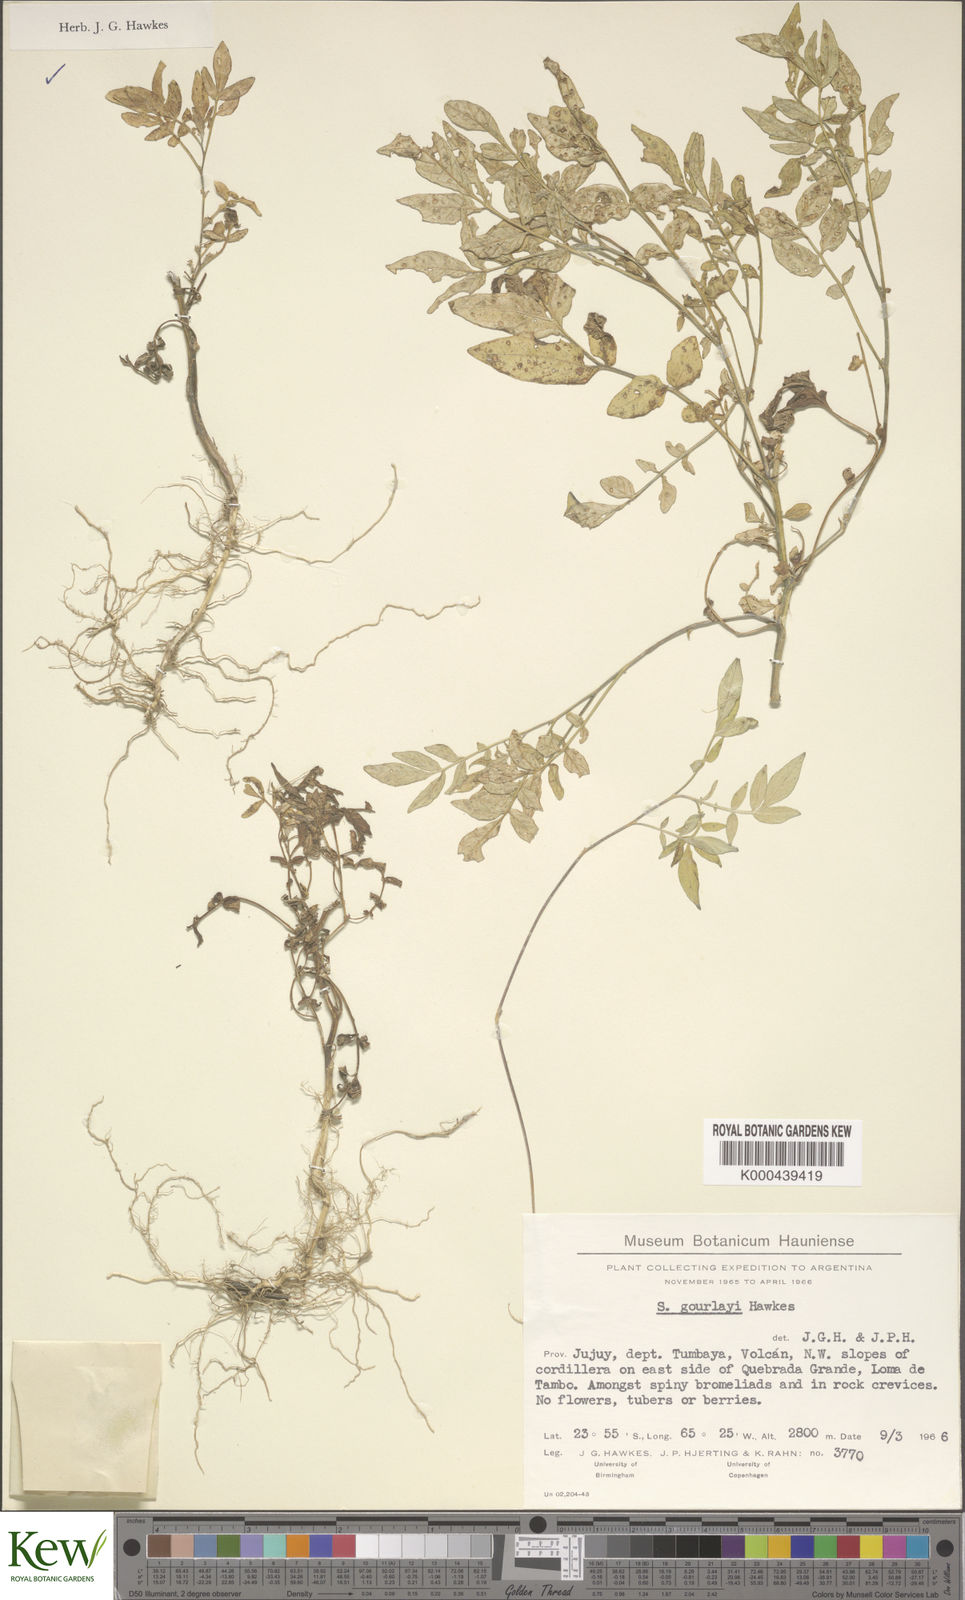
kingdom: Plantae
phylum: Tracheophyta
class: Magnoliopsida
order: Solanales
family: Solanaceae
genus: Solanum
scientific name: Solanum brevicaule
